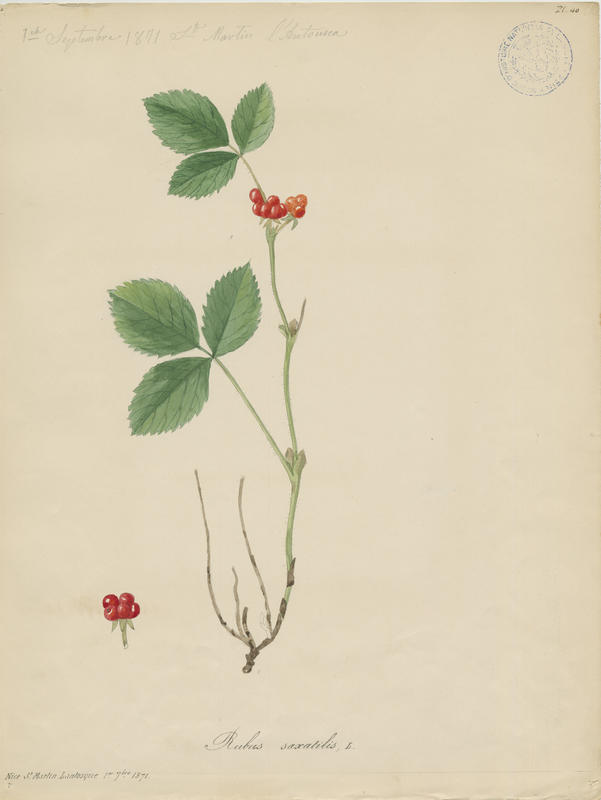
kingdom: Plantae
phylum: Tracheophyta
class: Magnoliopsida
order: Rosales
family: Rosaceae
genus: Rubus
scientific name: Rubus saxatilis
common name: Stone bramble
